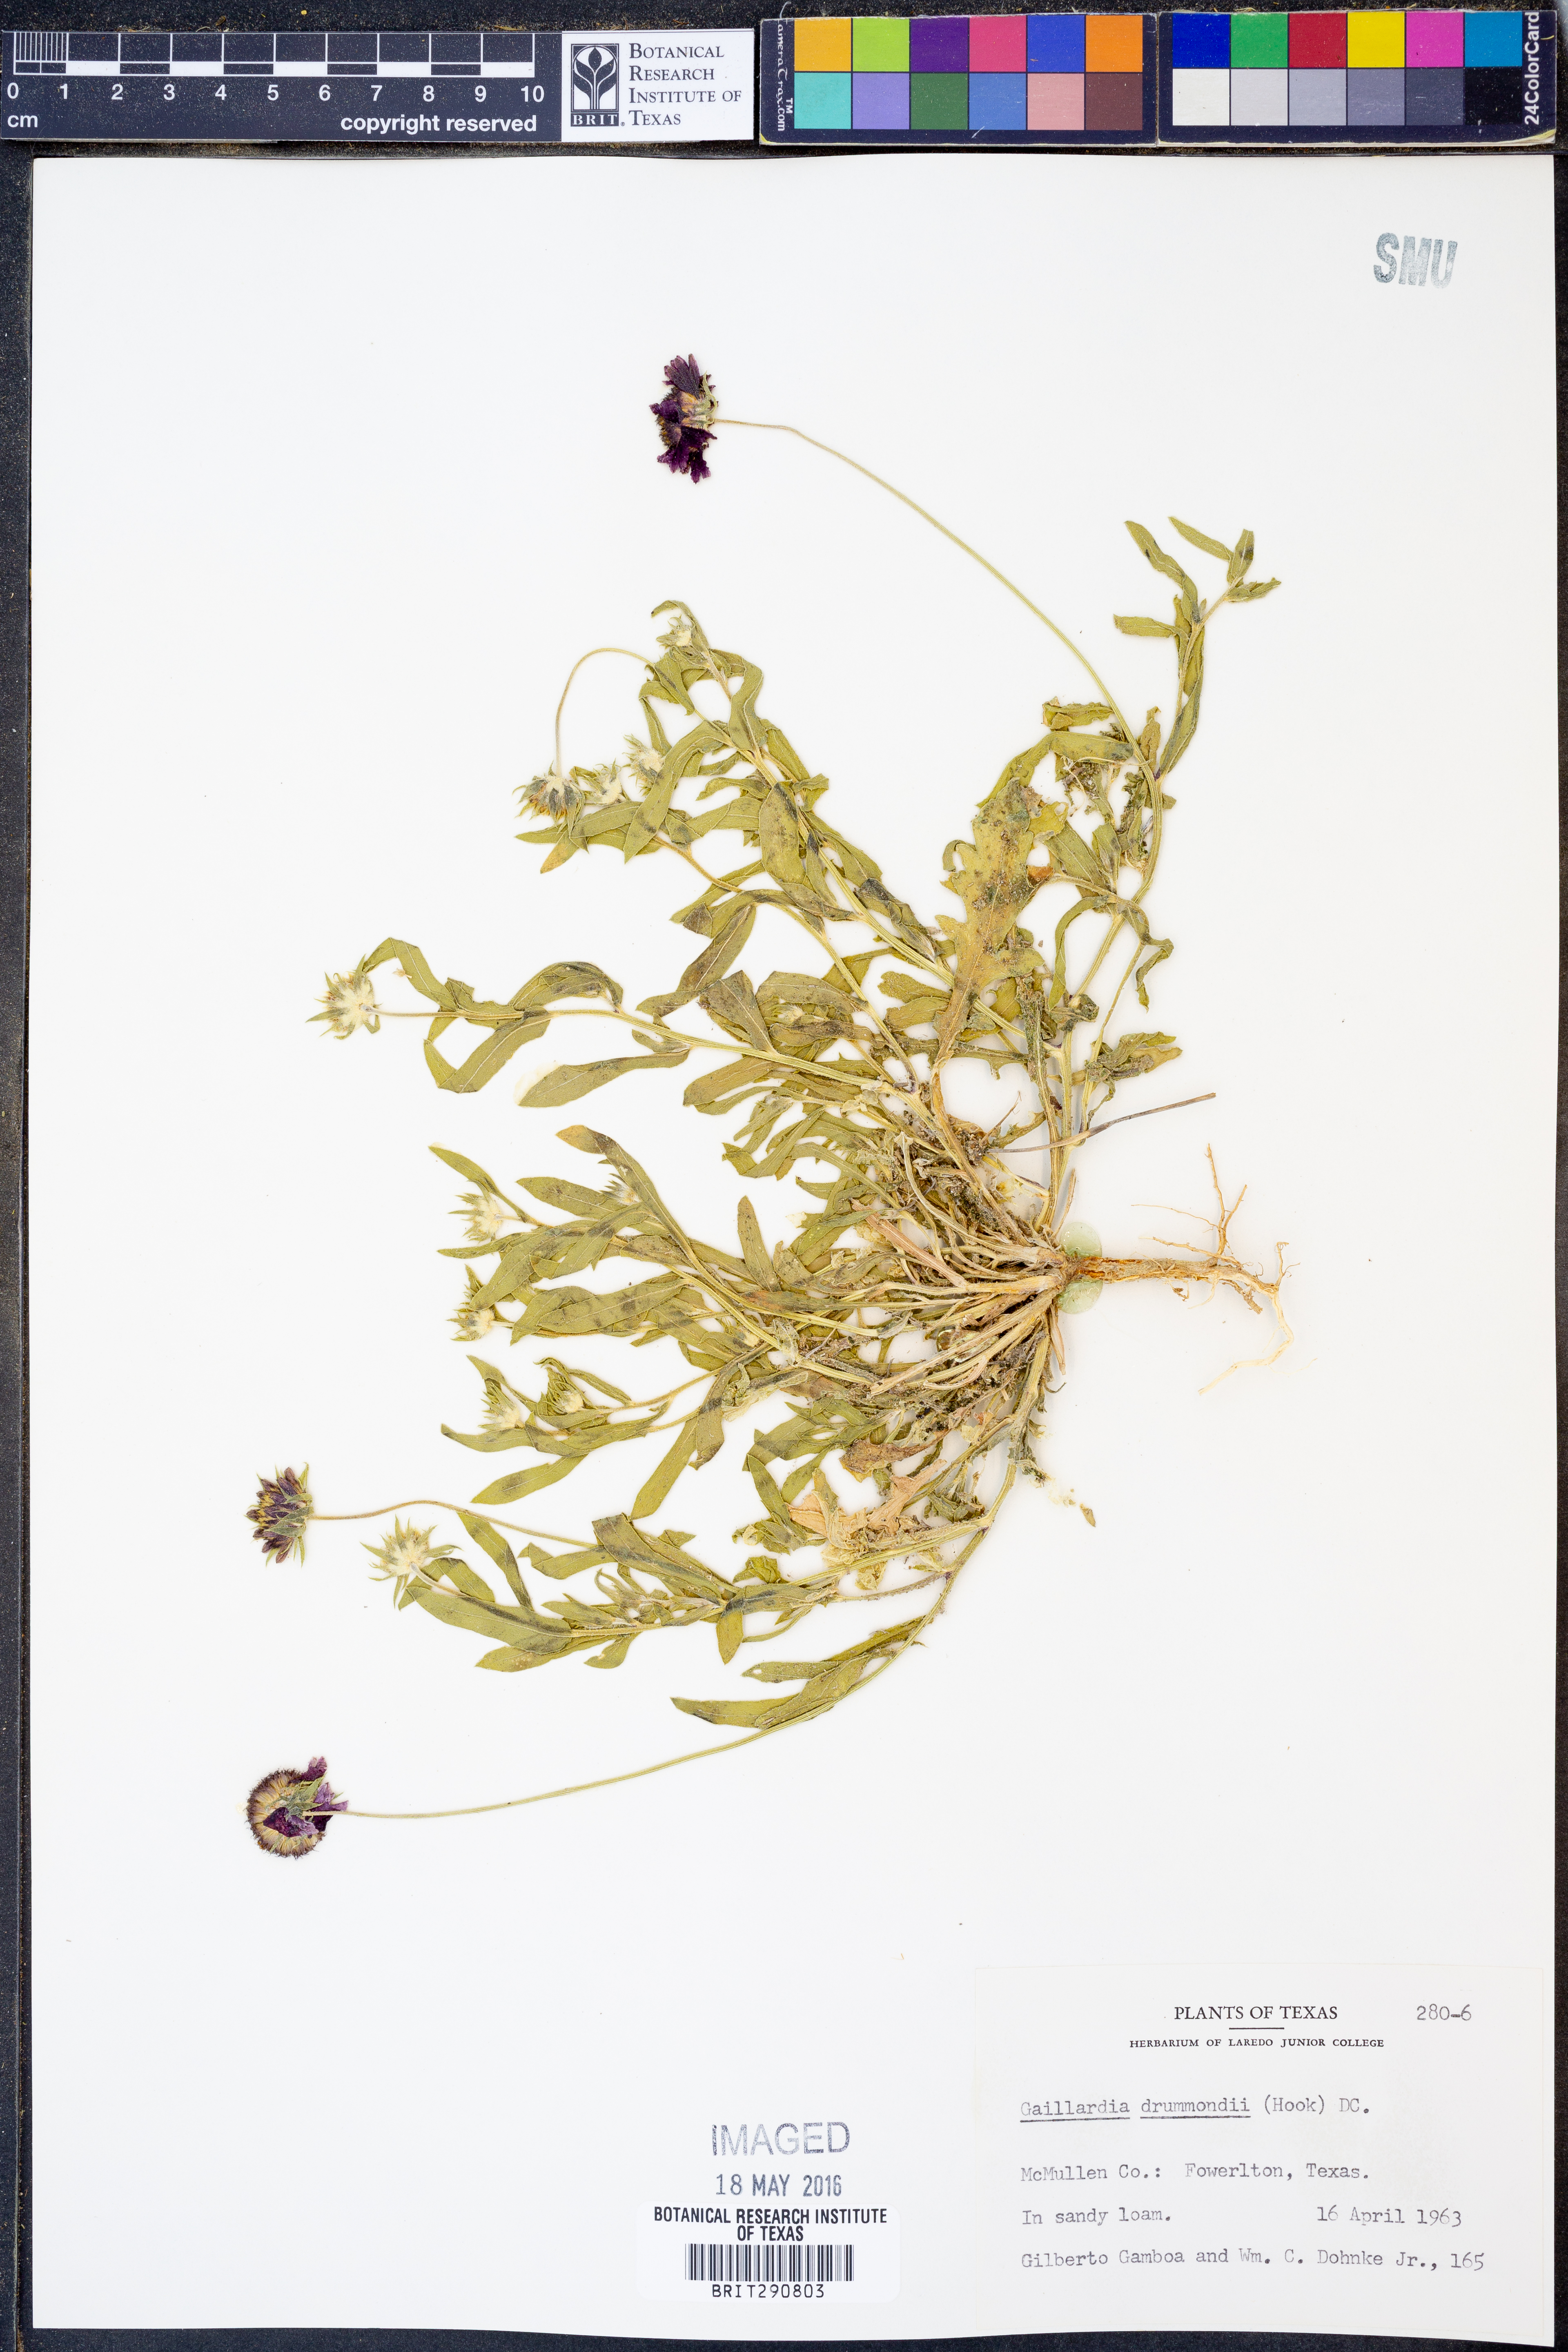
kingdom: Plantae
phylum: Tracheophyta
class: Magnoliopsida
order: Asterales
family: Asteraceae
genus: Gaillardia
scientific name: Gaillardia pulchella
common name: Firewheel
